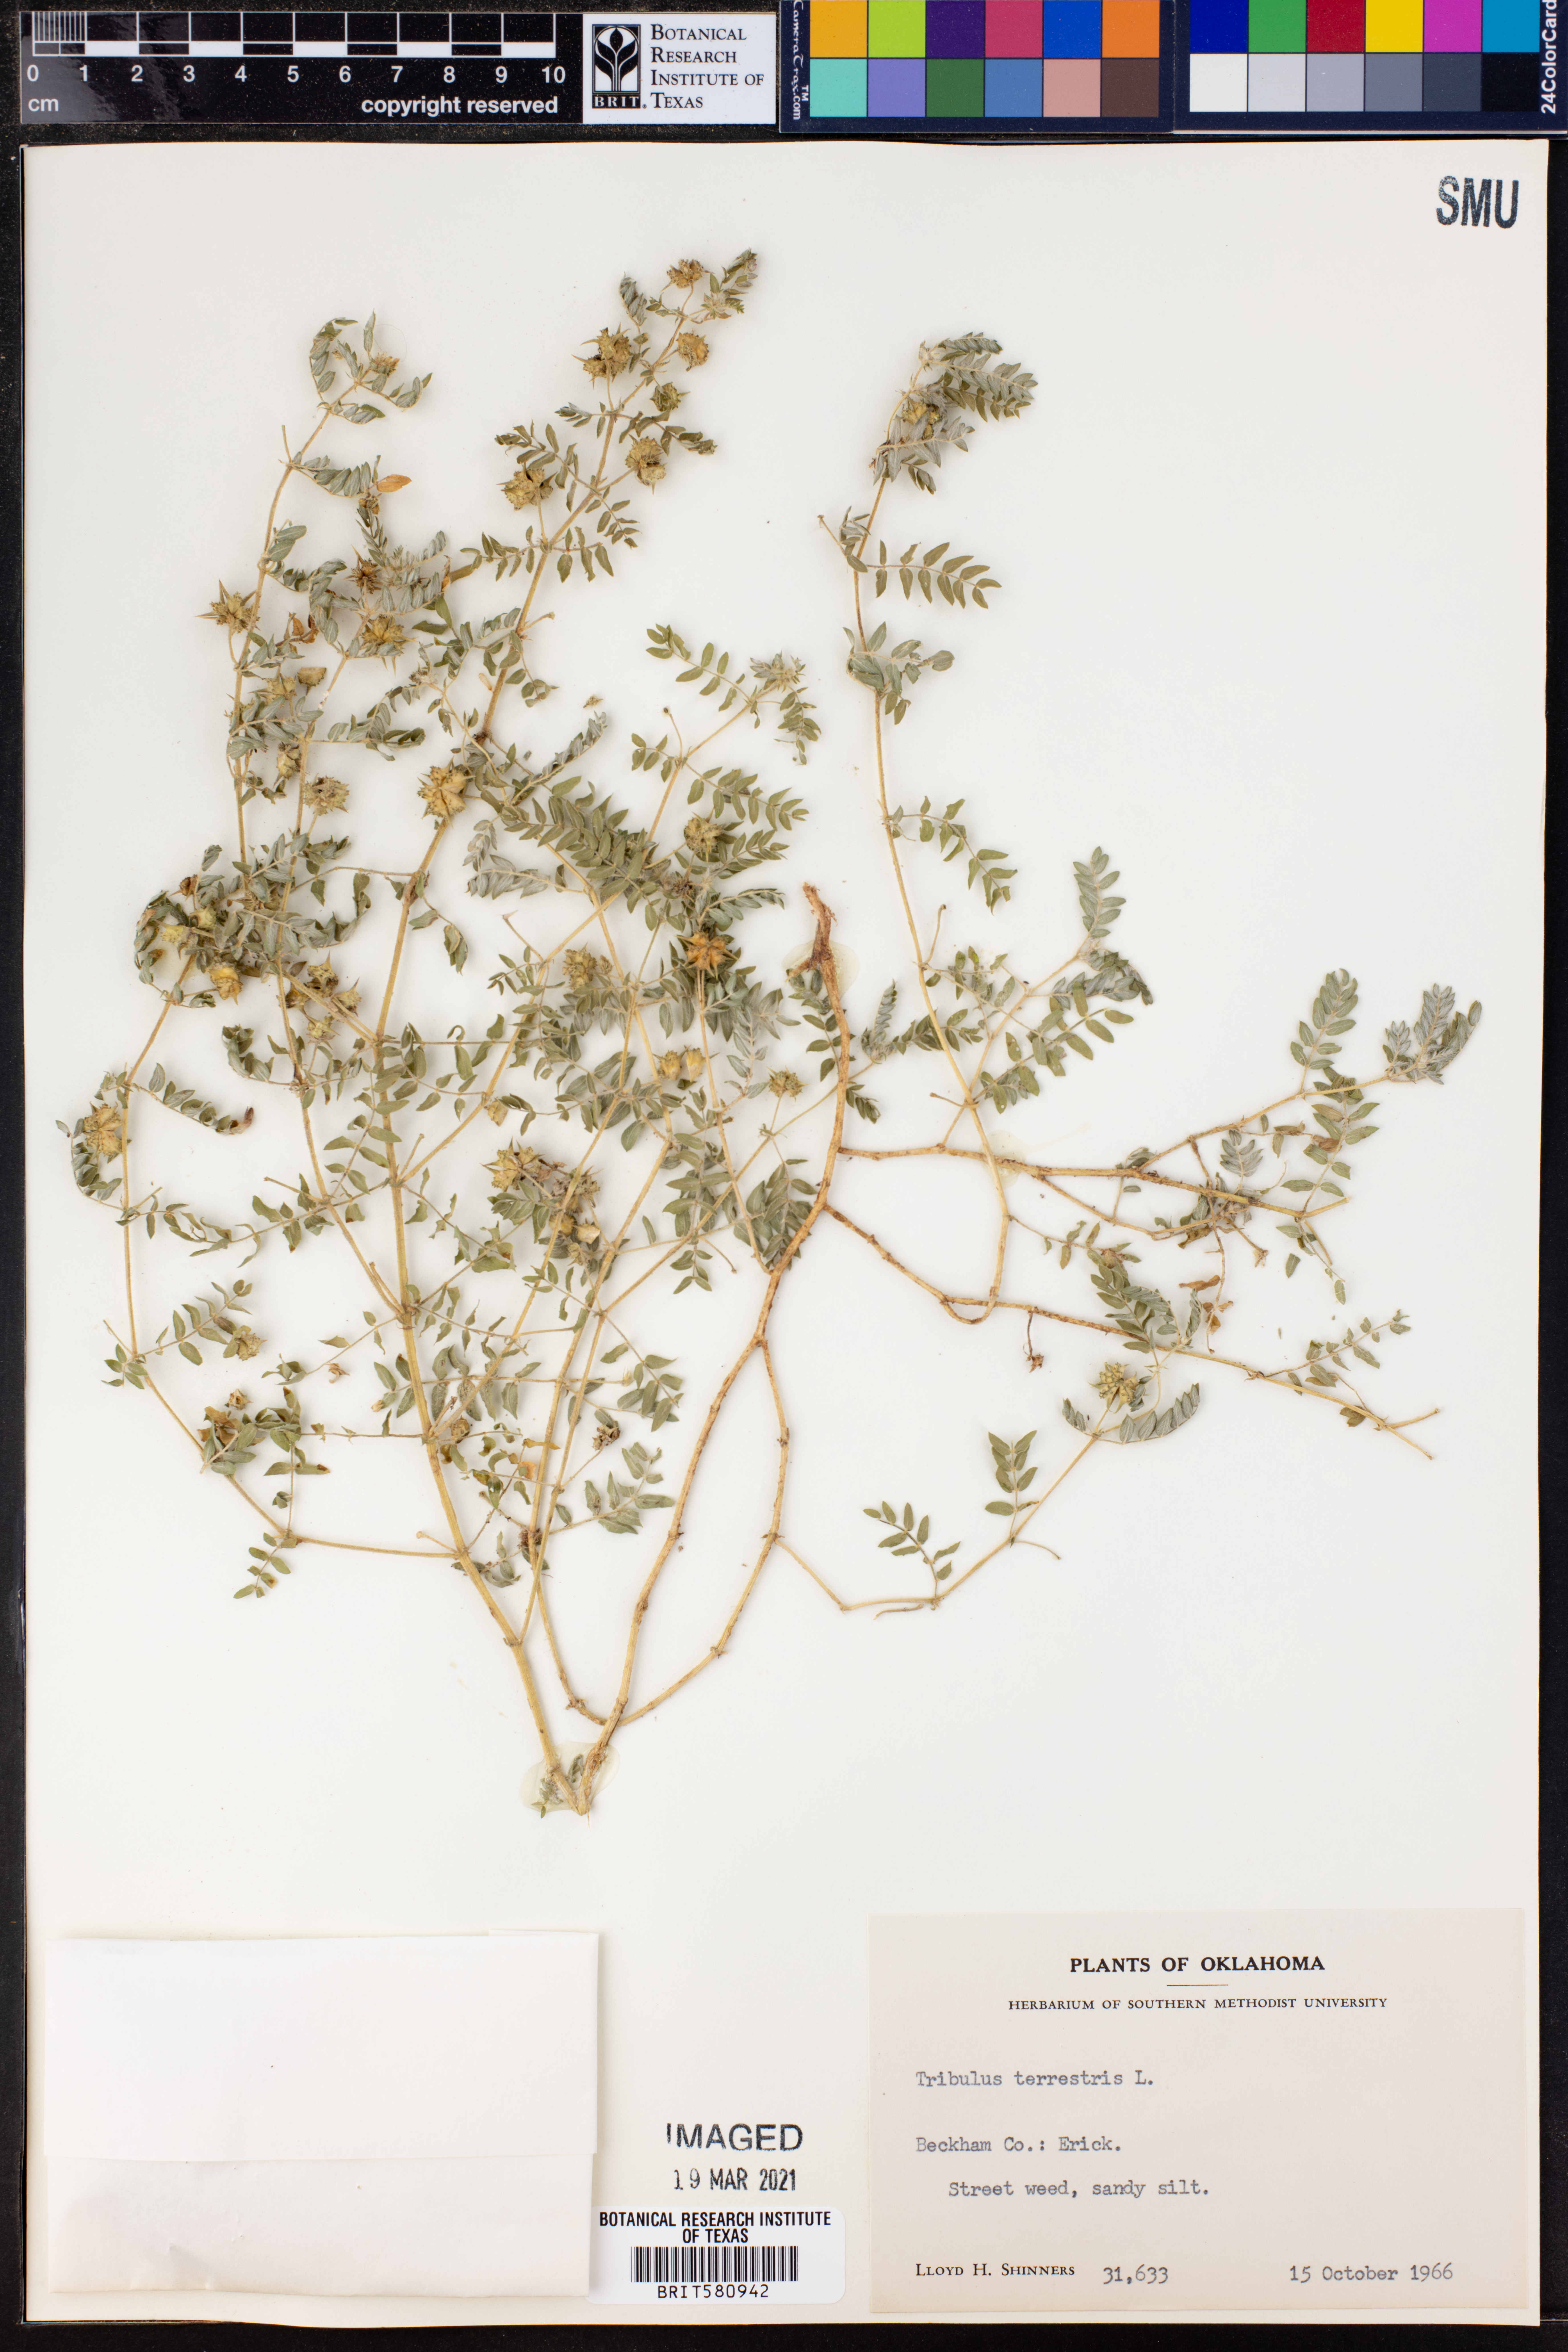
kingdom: Plantae
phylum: Tracheophyta
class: Magnoliopsida
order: Zygophyllales
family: Zygophyllaceae
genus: Tribulus
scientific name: Tribulus terrestris
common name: Puncturevine
